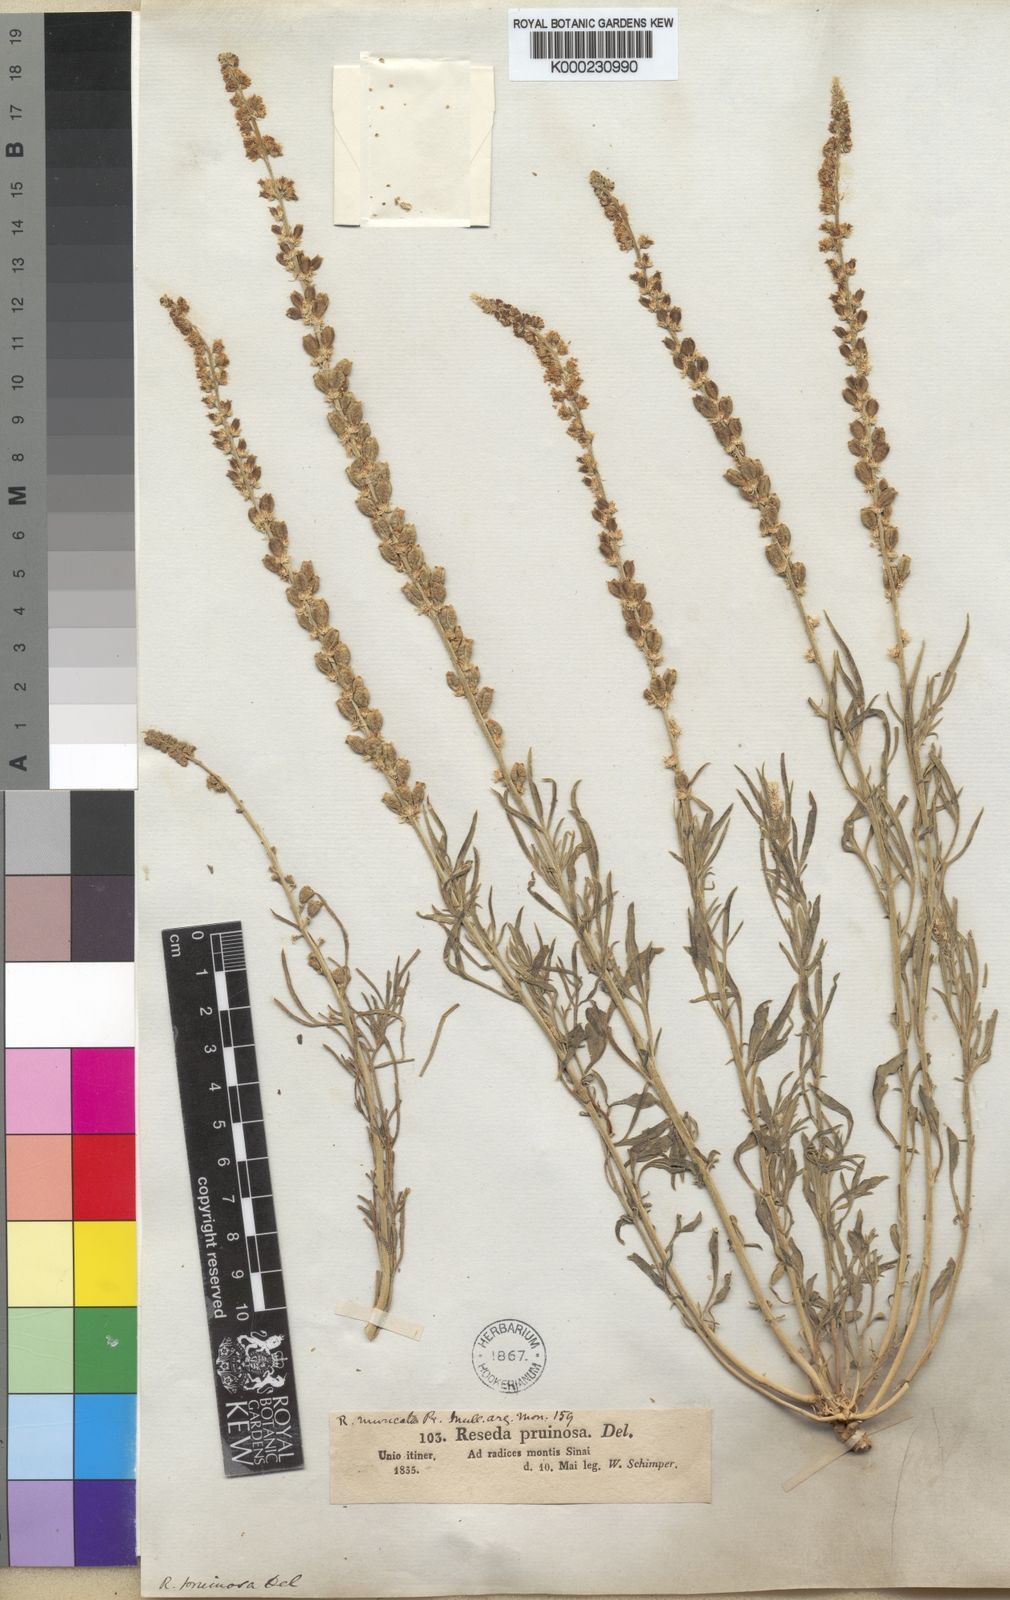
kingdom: Plantae
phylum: Tracheophyta
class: Magnoliopsida
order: Brassicales
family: Resedaceae
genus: Reseda
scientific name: Reseda muricata
